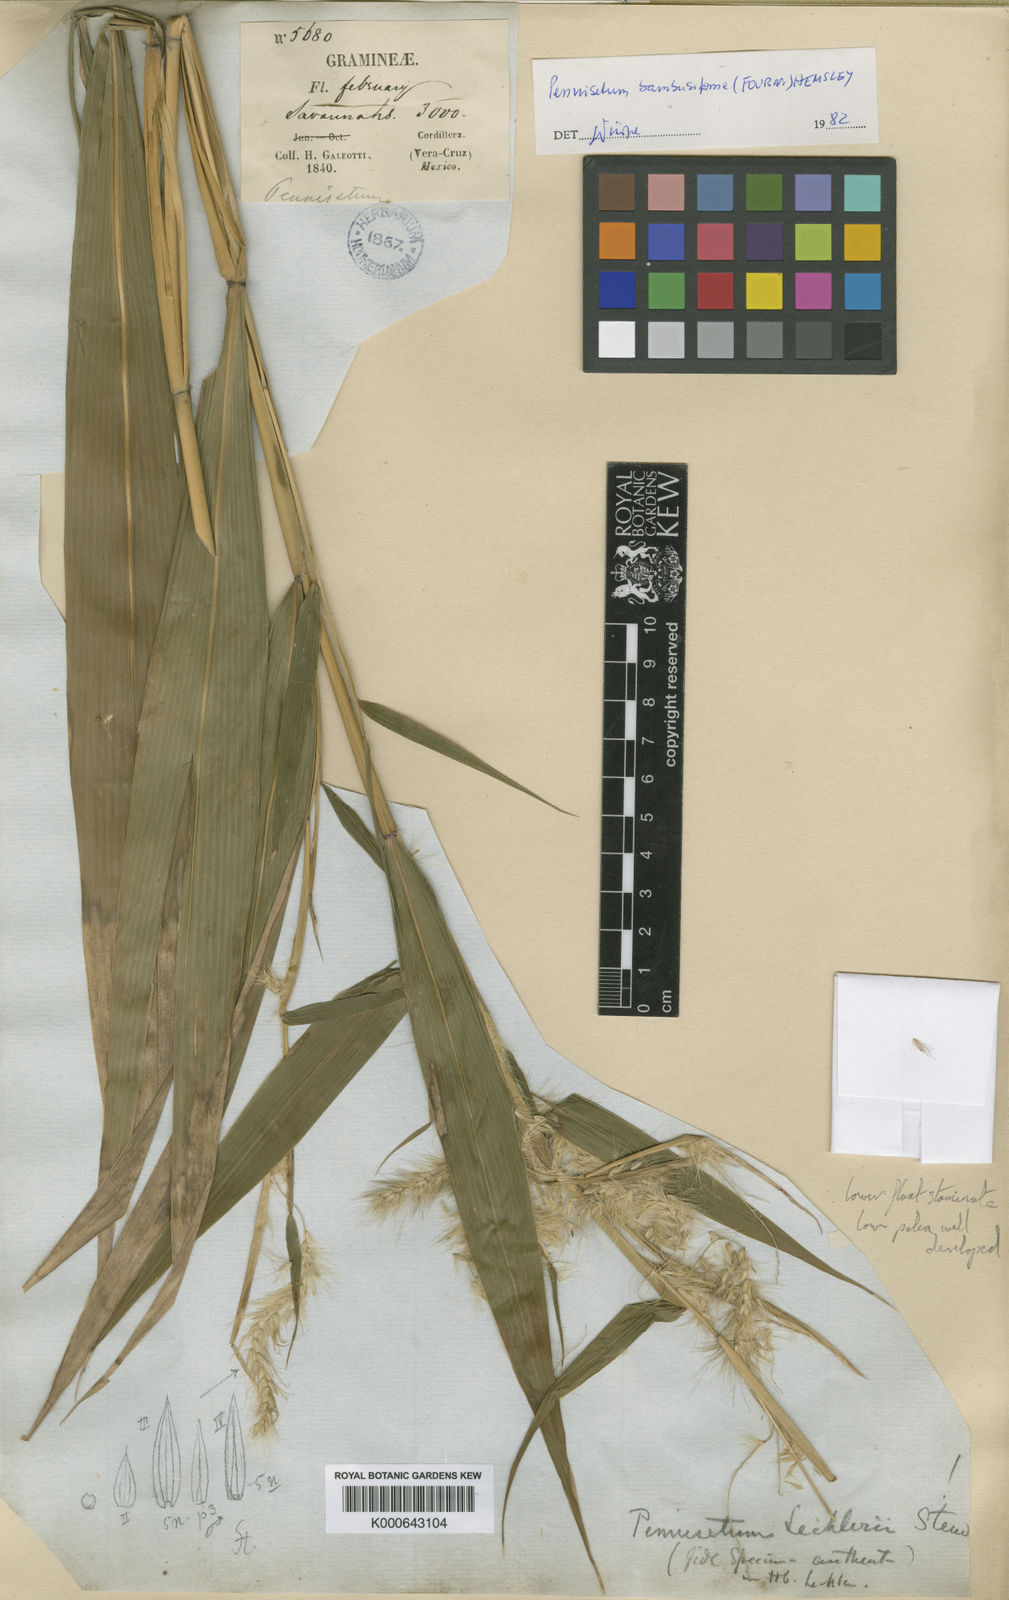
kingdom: Plantae
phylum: Tracheophyta
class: Liliopsida
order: Poales
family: Poaceae
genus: Cenchrus
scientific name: Cenchrus Pennisetum spec
